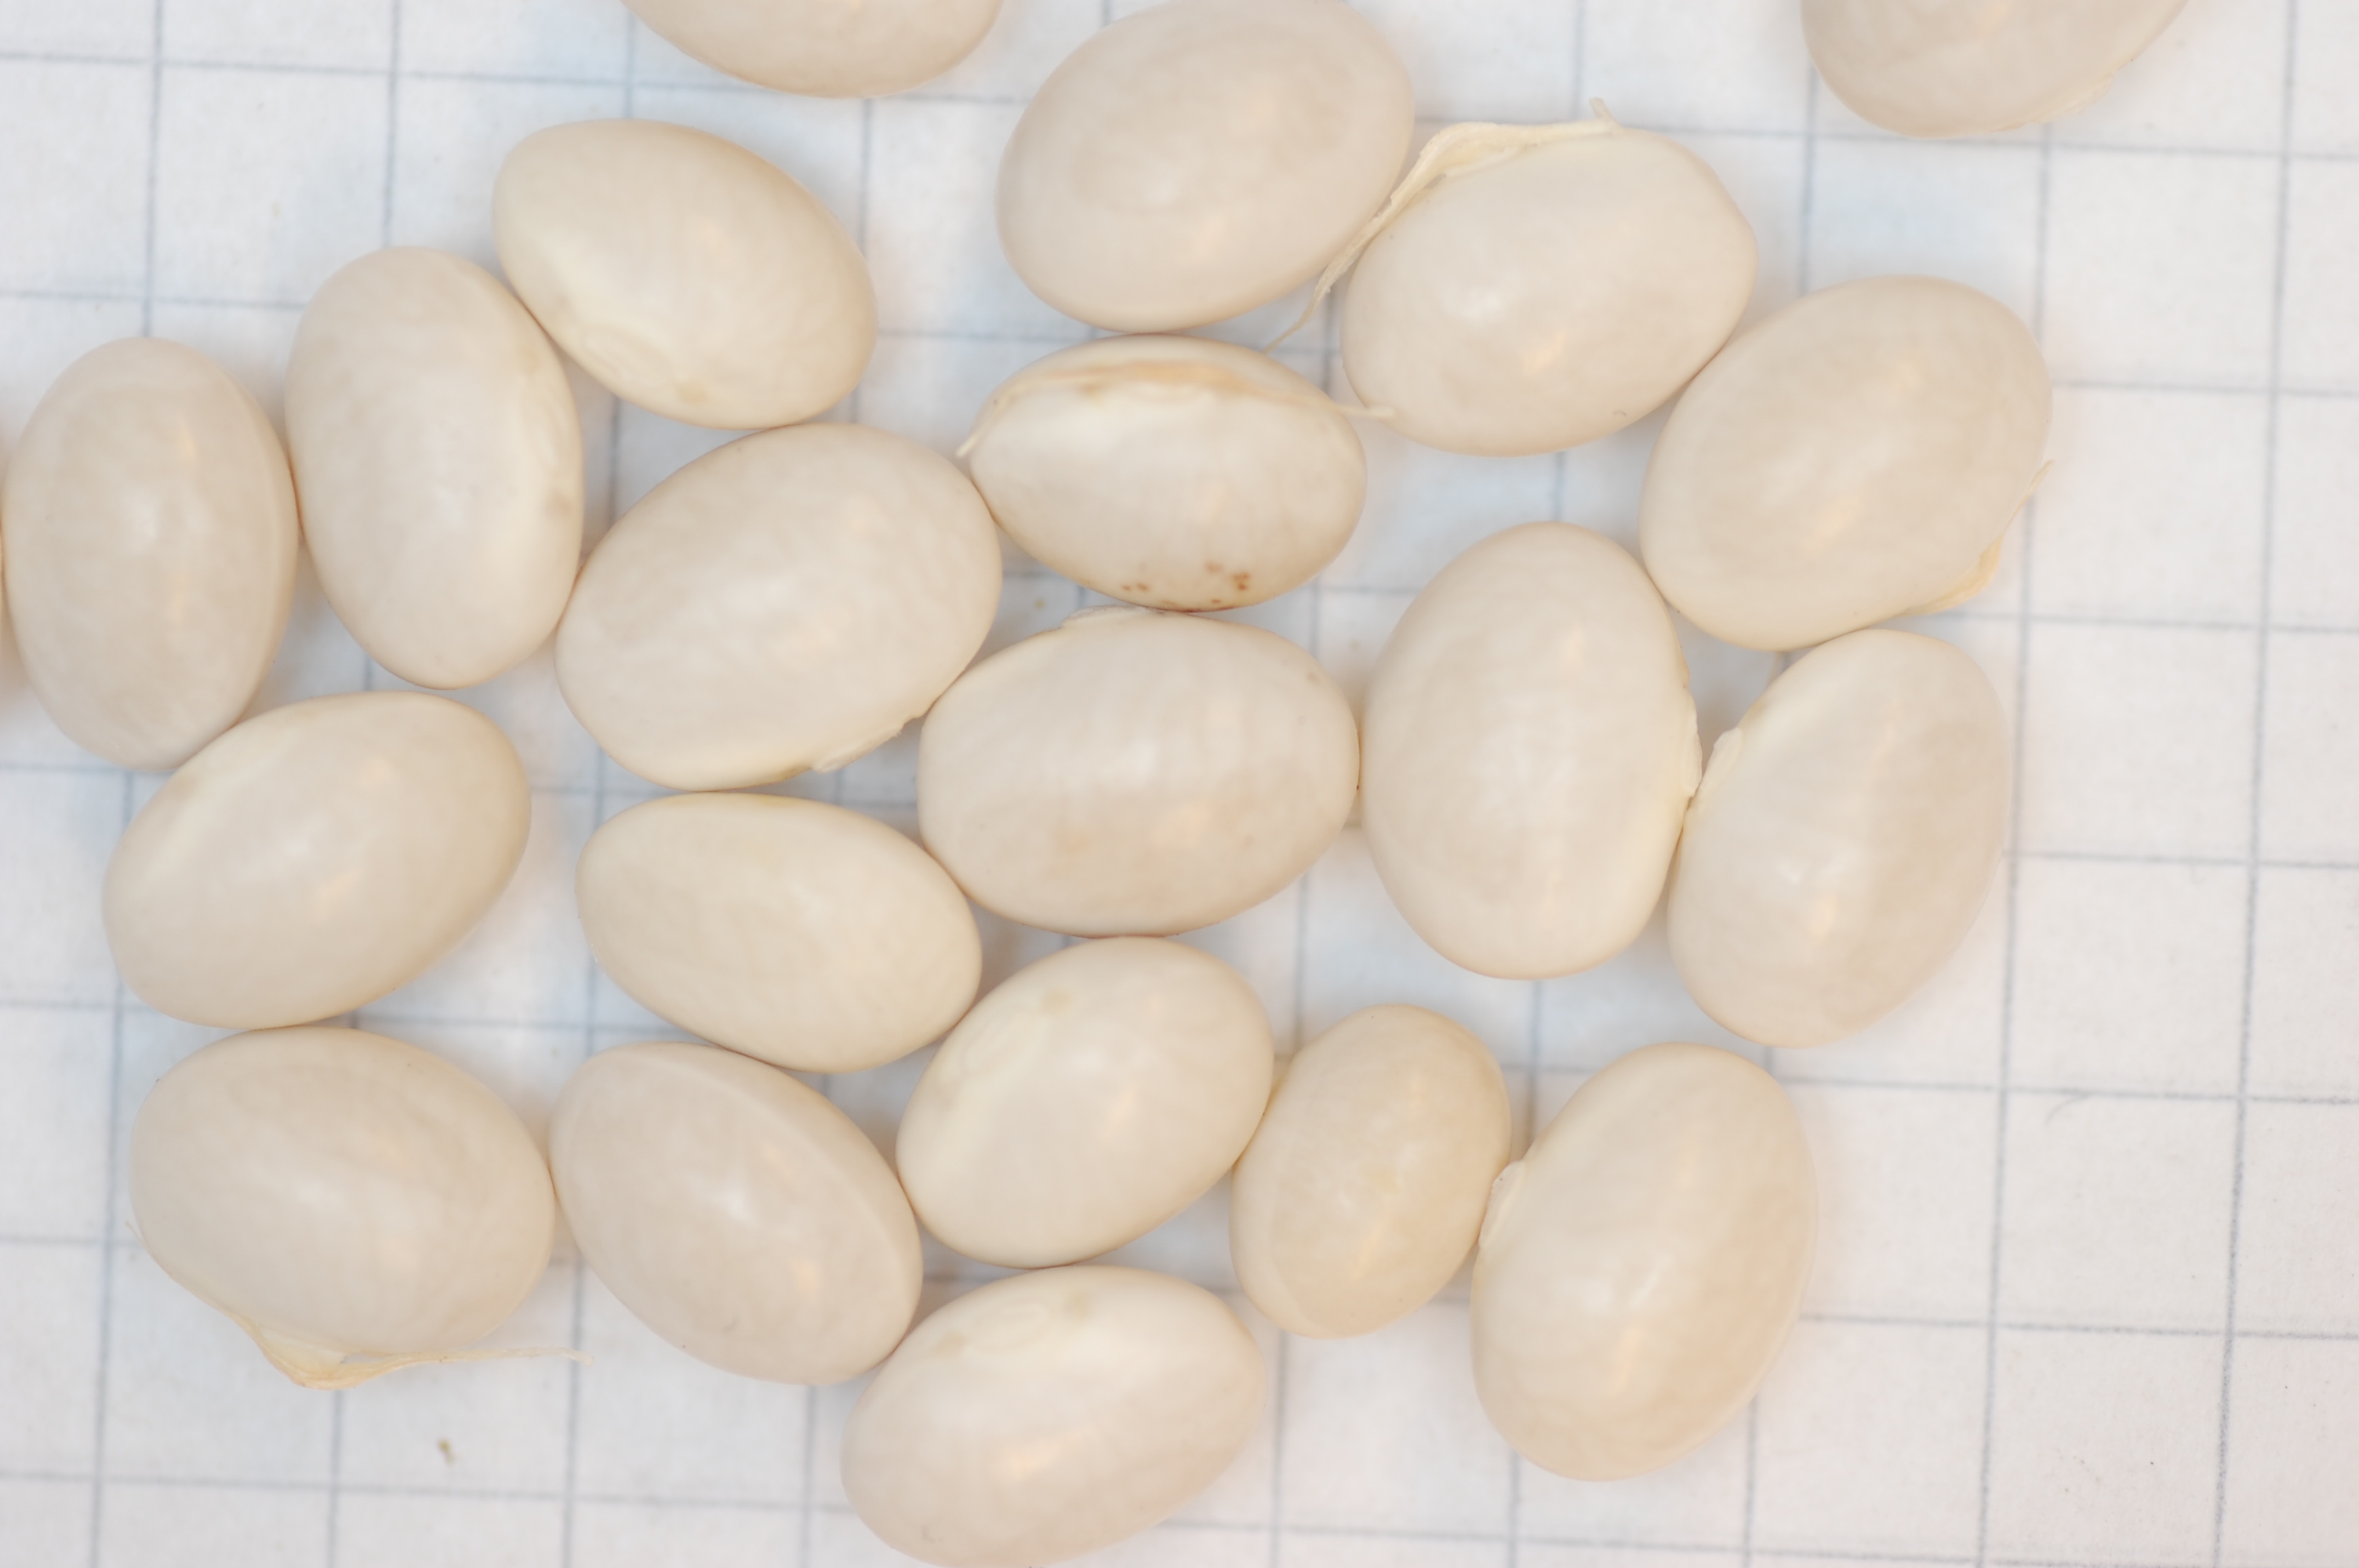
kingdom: Plantae
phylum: Tracheophyta
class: Magnoliopsida
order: Fabales
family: Fabaceae
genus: Phaseolus
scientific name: Phaseolus vulgaris
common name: Bean
